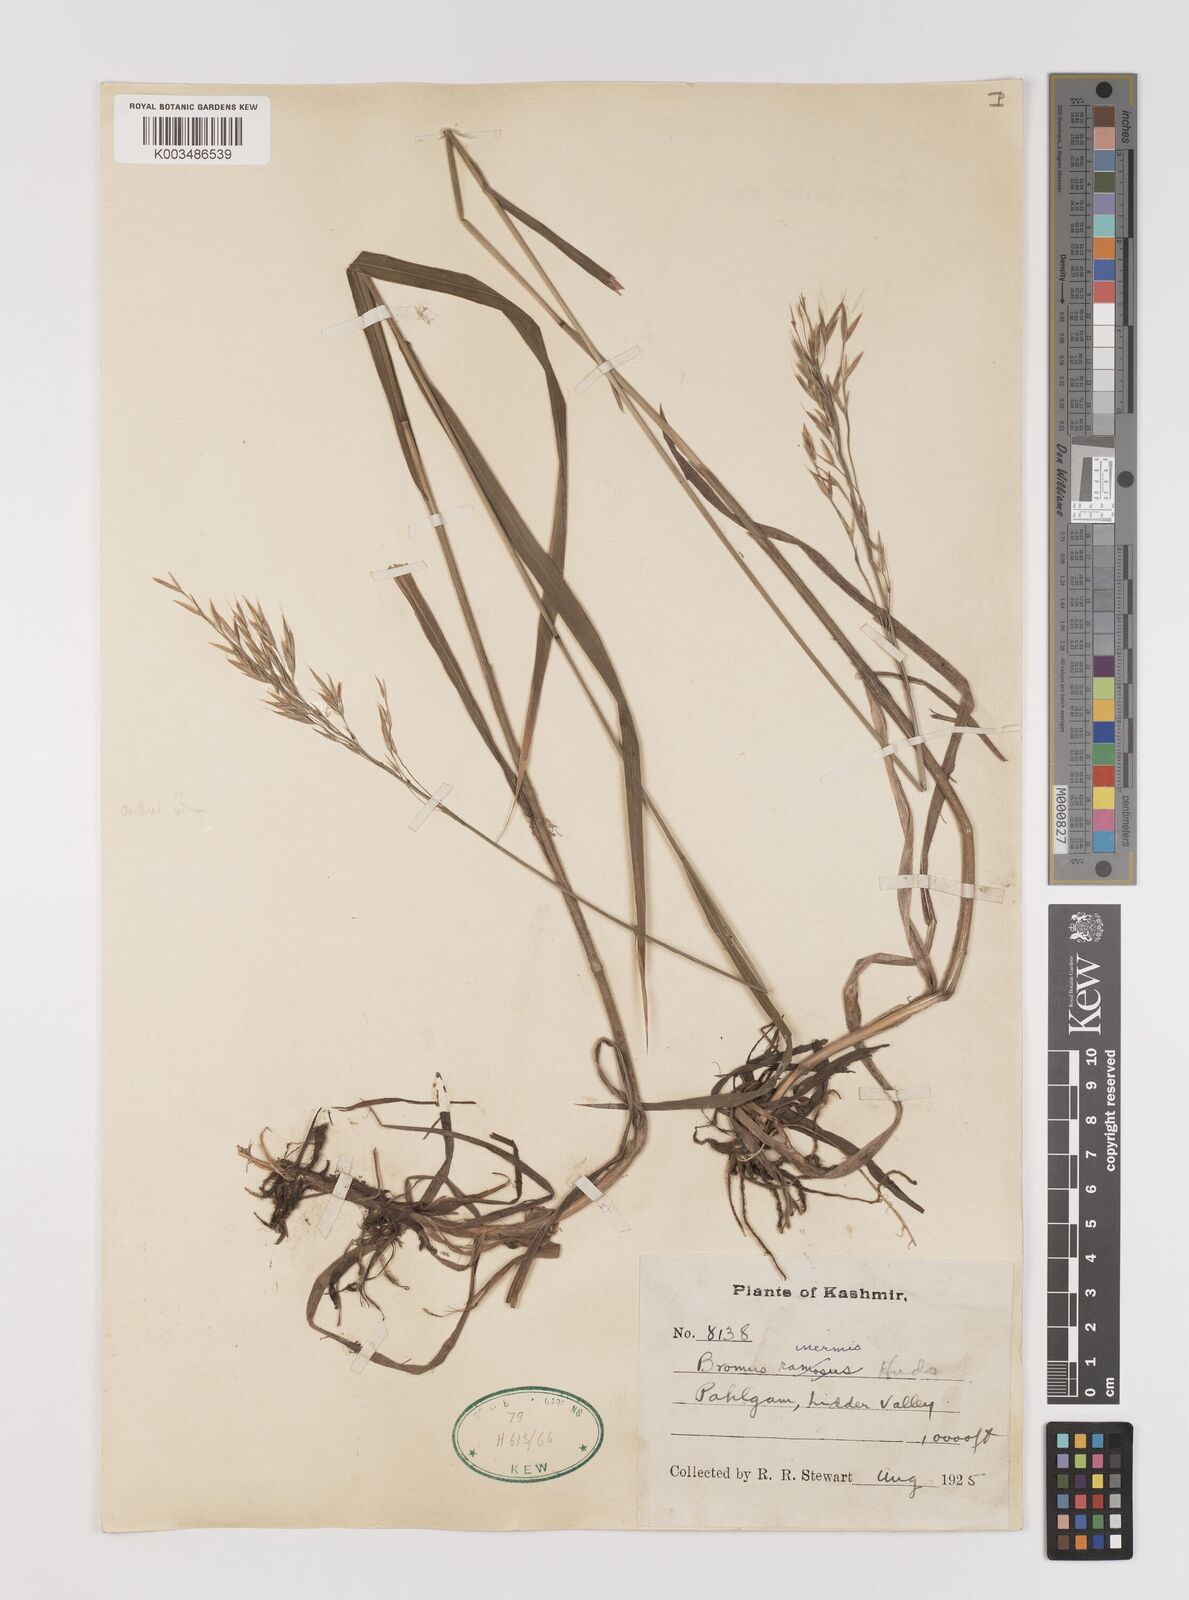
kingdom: Plantae
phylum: Tracheophyta
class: Liliopsida
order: Poales
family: Poaceae
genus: Bromus
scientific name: Bromus inermis
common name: Smooth brome
